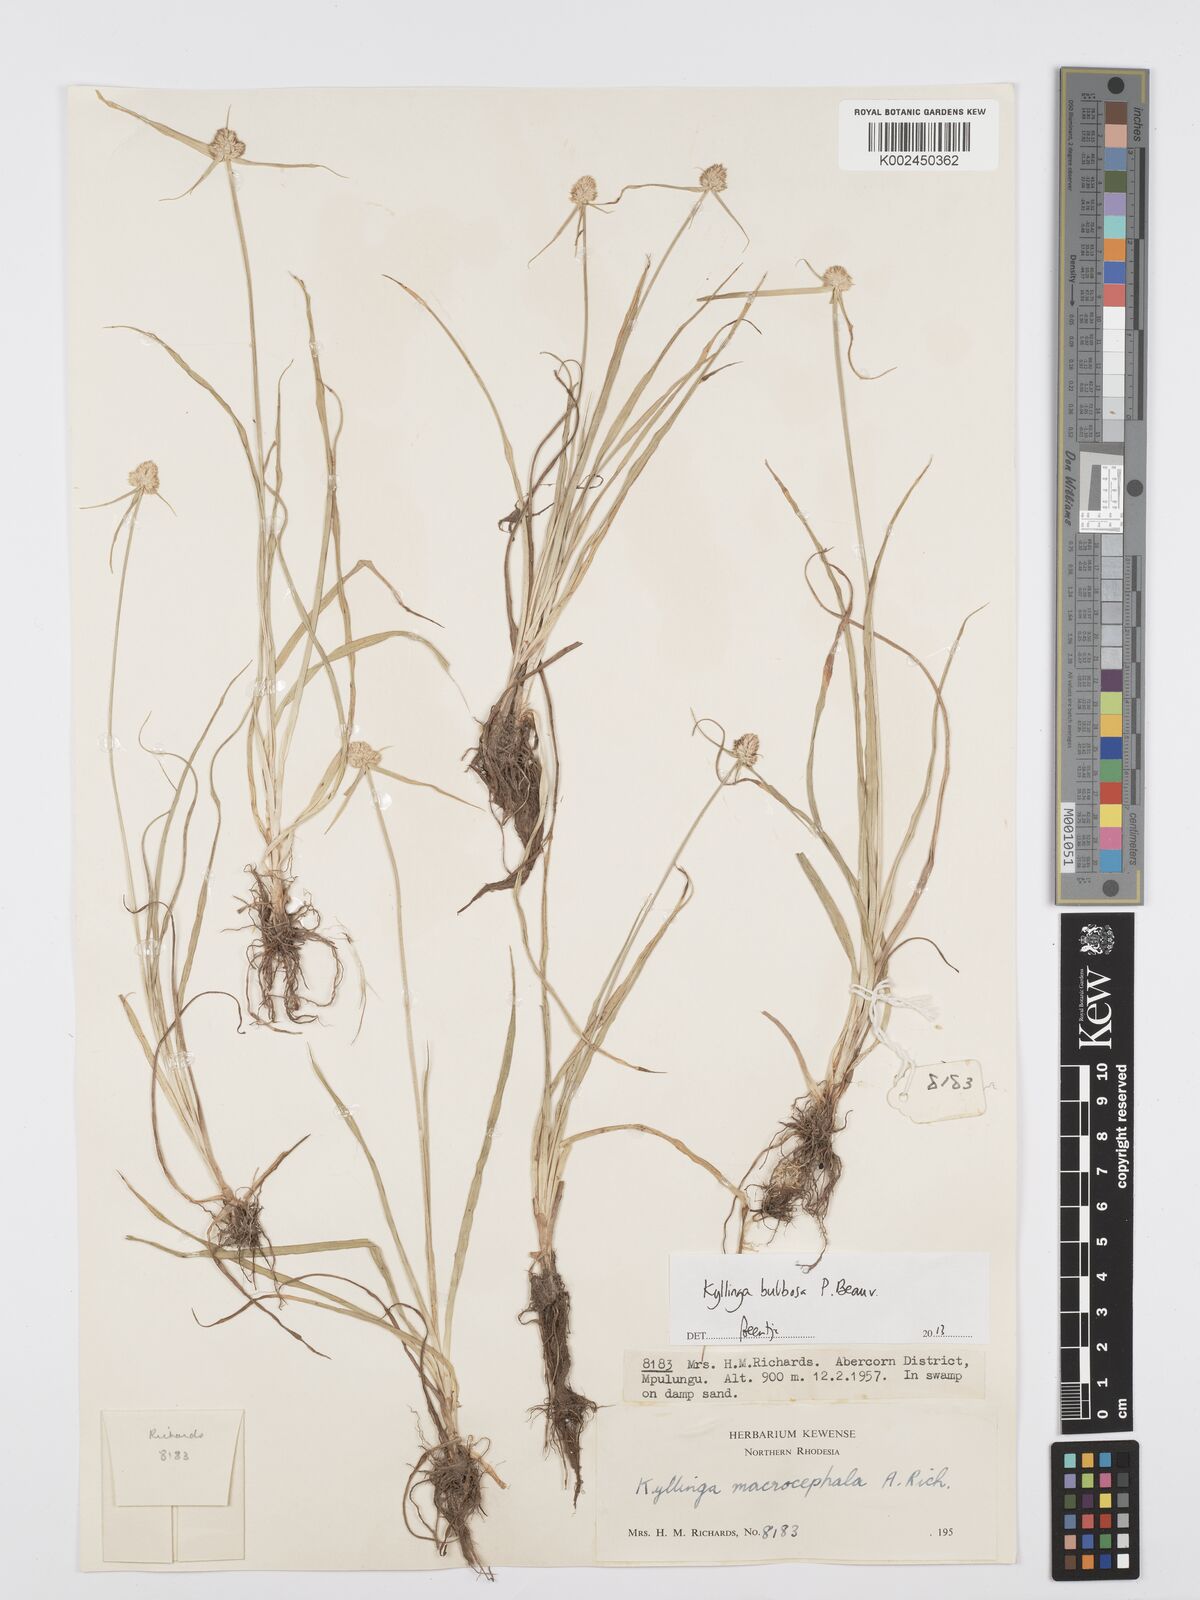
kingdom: Plantae
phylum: Tracheophyta
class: Liliopsida
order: Poales
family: Cyperaceae
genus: Cyperus
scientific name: Cyperus
